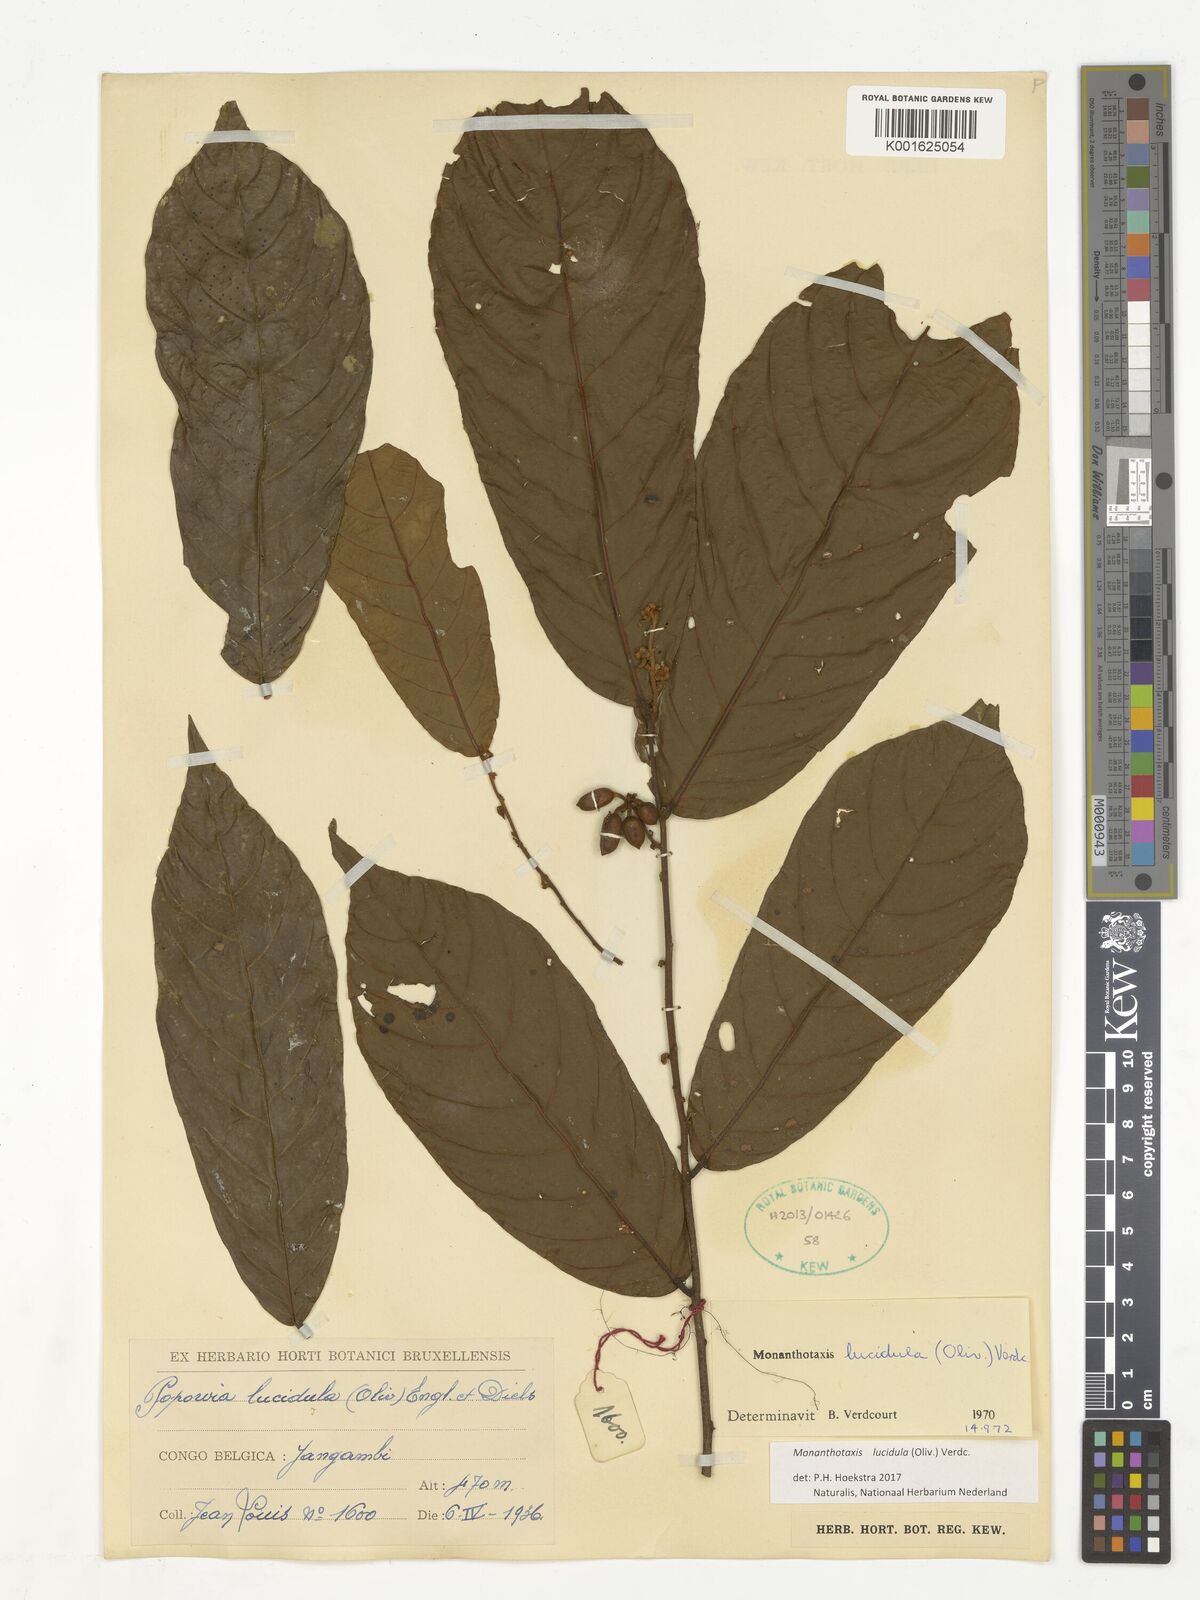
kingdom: Plantae
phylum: Tracheophyta
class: Magnoliopsida
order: Magnoliales
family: Annonaceae
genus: Monanthotaxis
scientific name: Monanthotaxis lucidula
